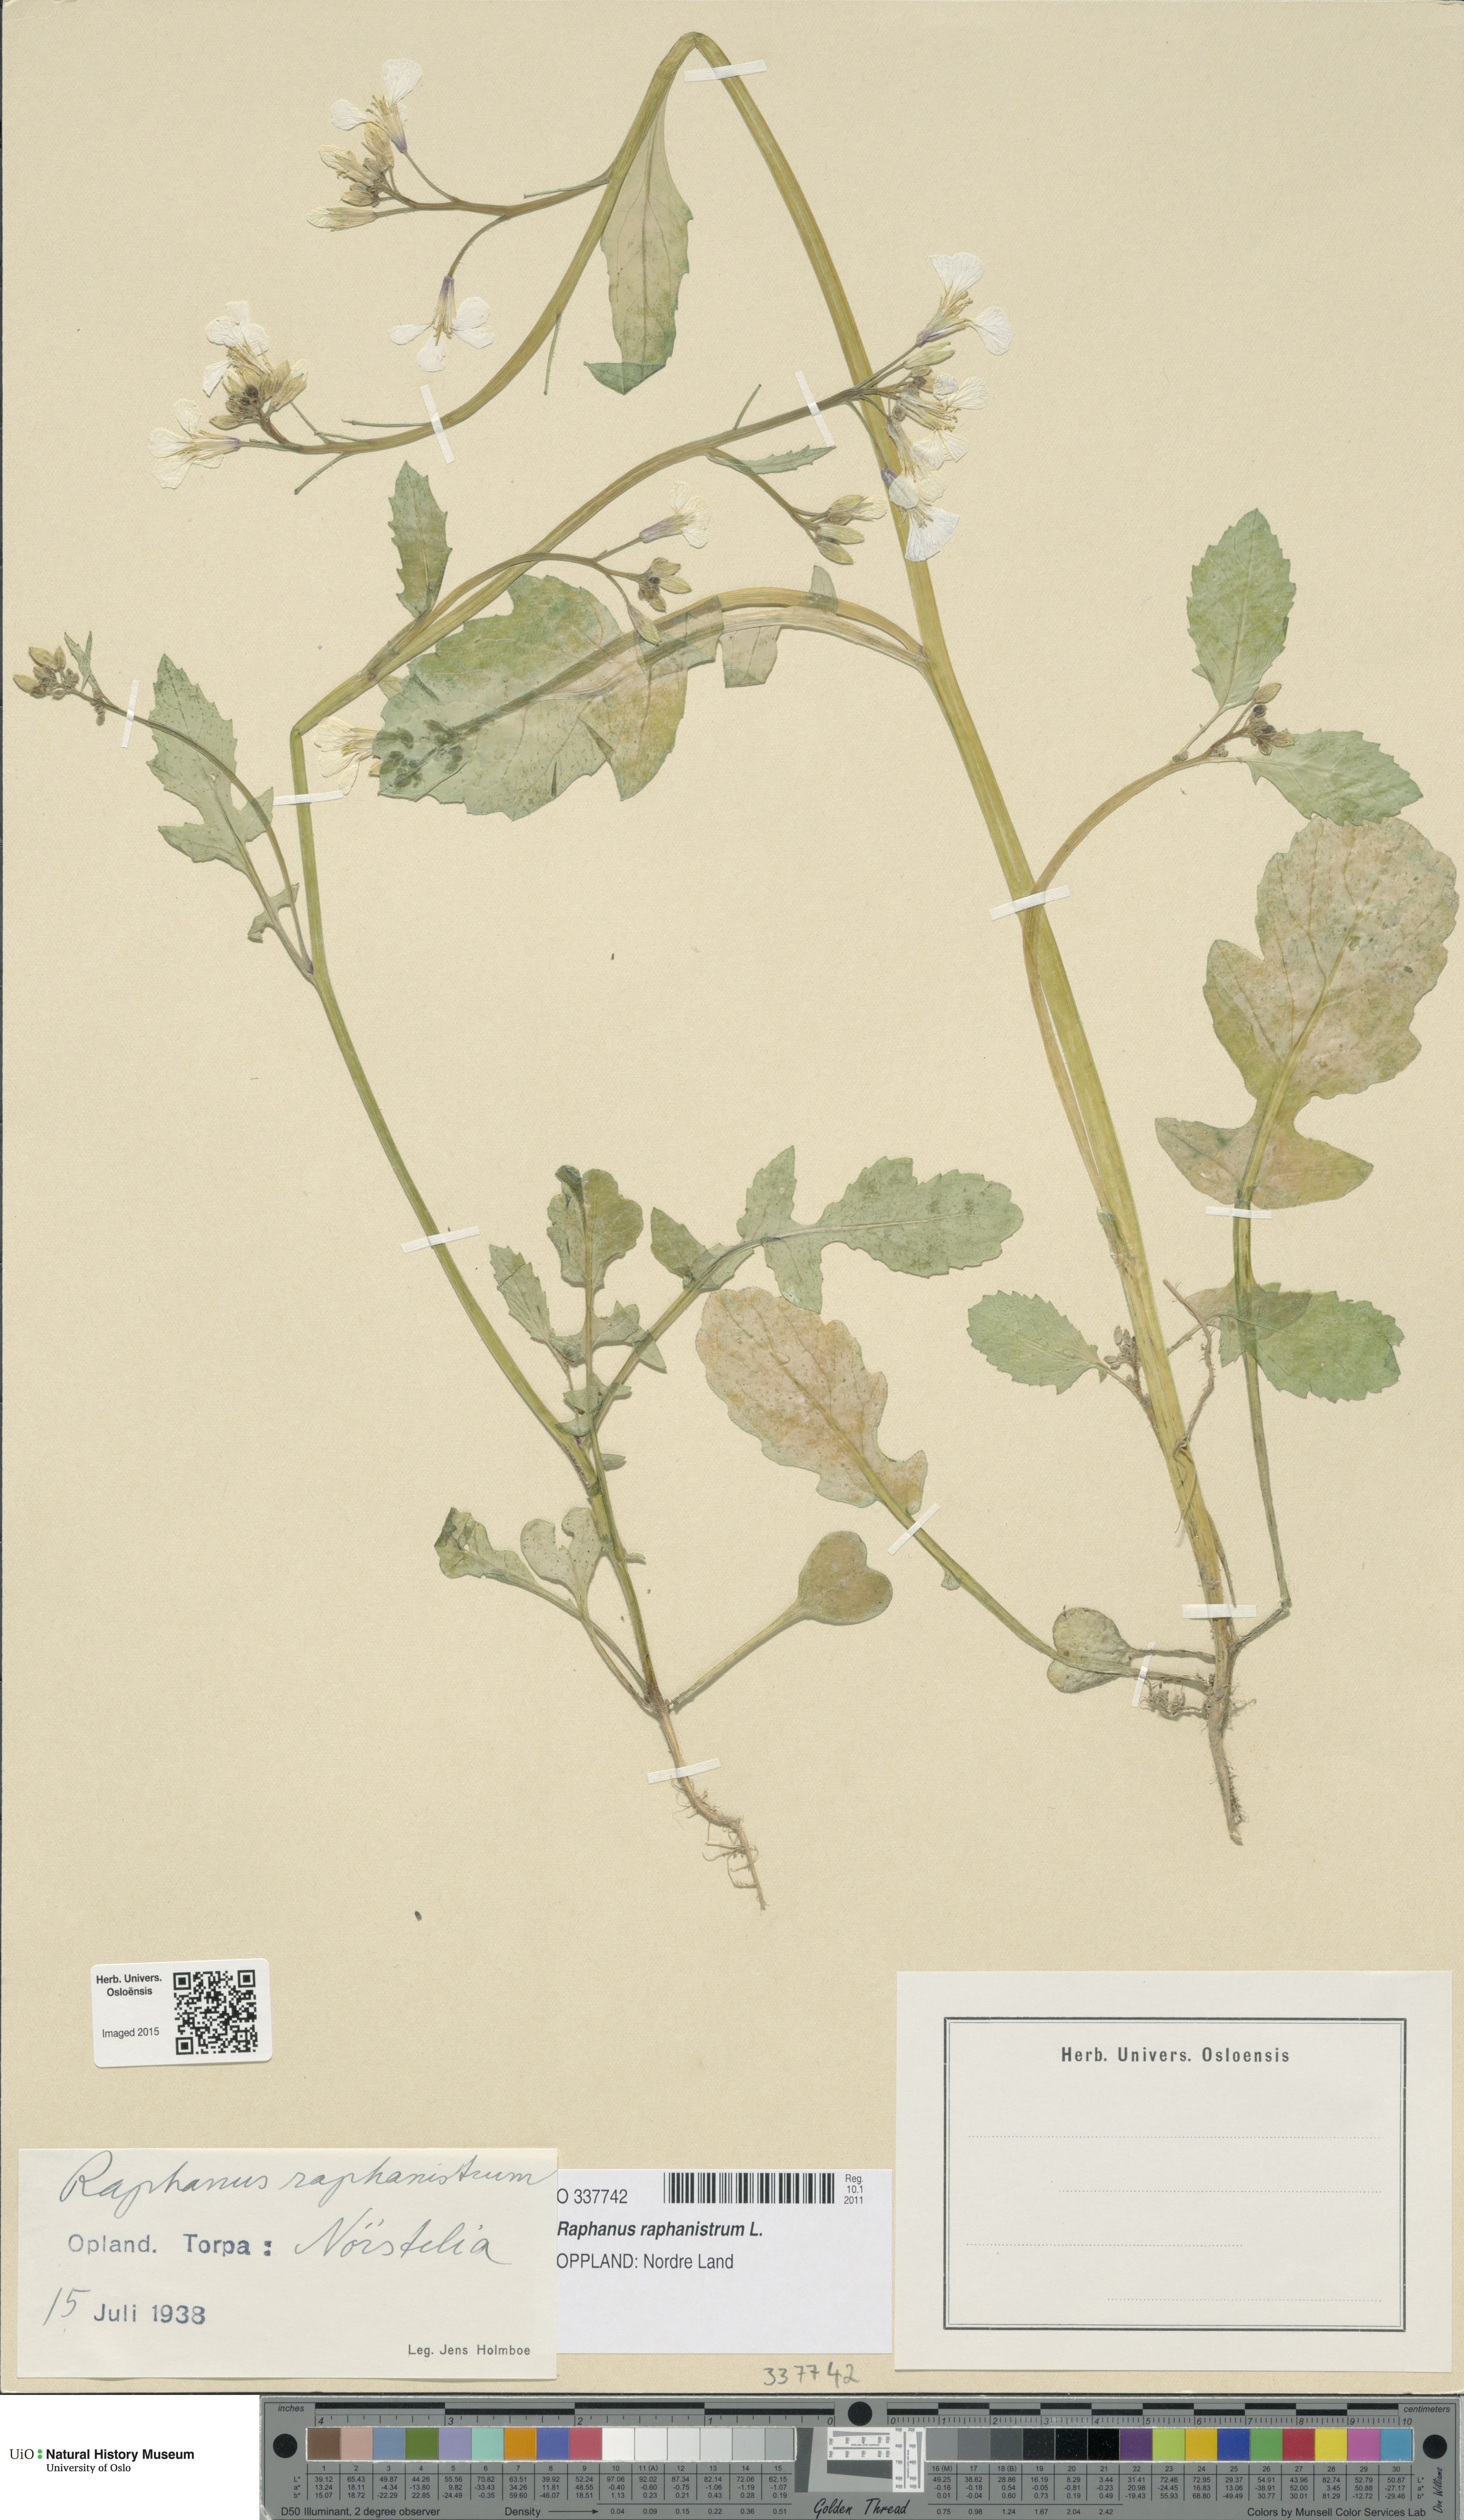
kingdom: Plantae
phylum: Tracheophyta
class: Magnoliopsida
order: Brassicales
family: Brassicaceae
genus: Raphanus
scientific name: Raphanus raphanistrum
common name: Wild radish
